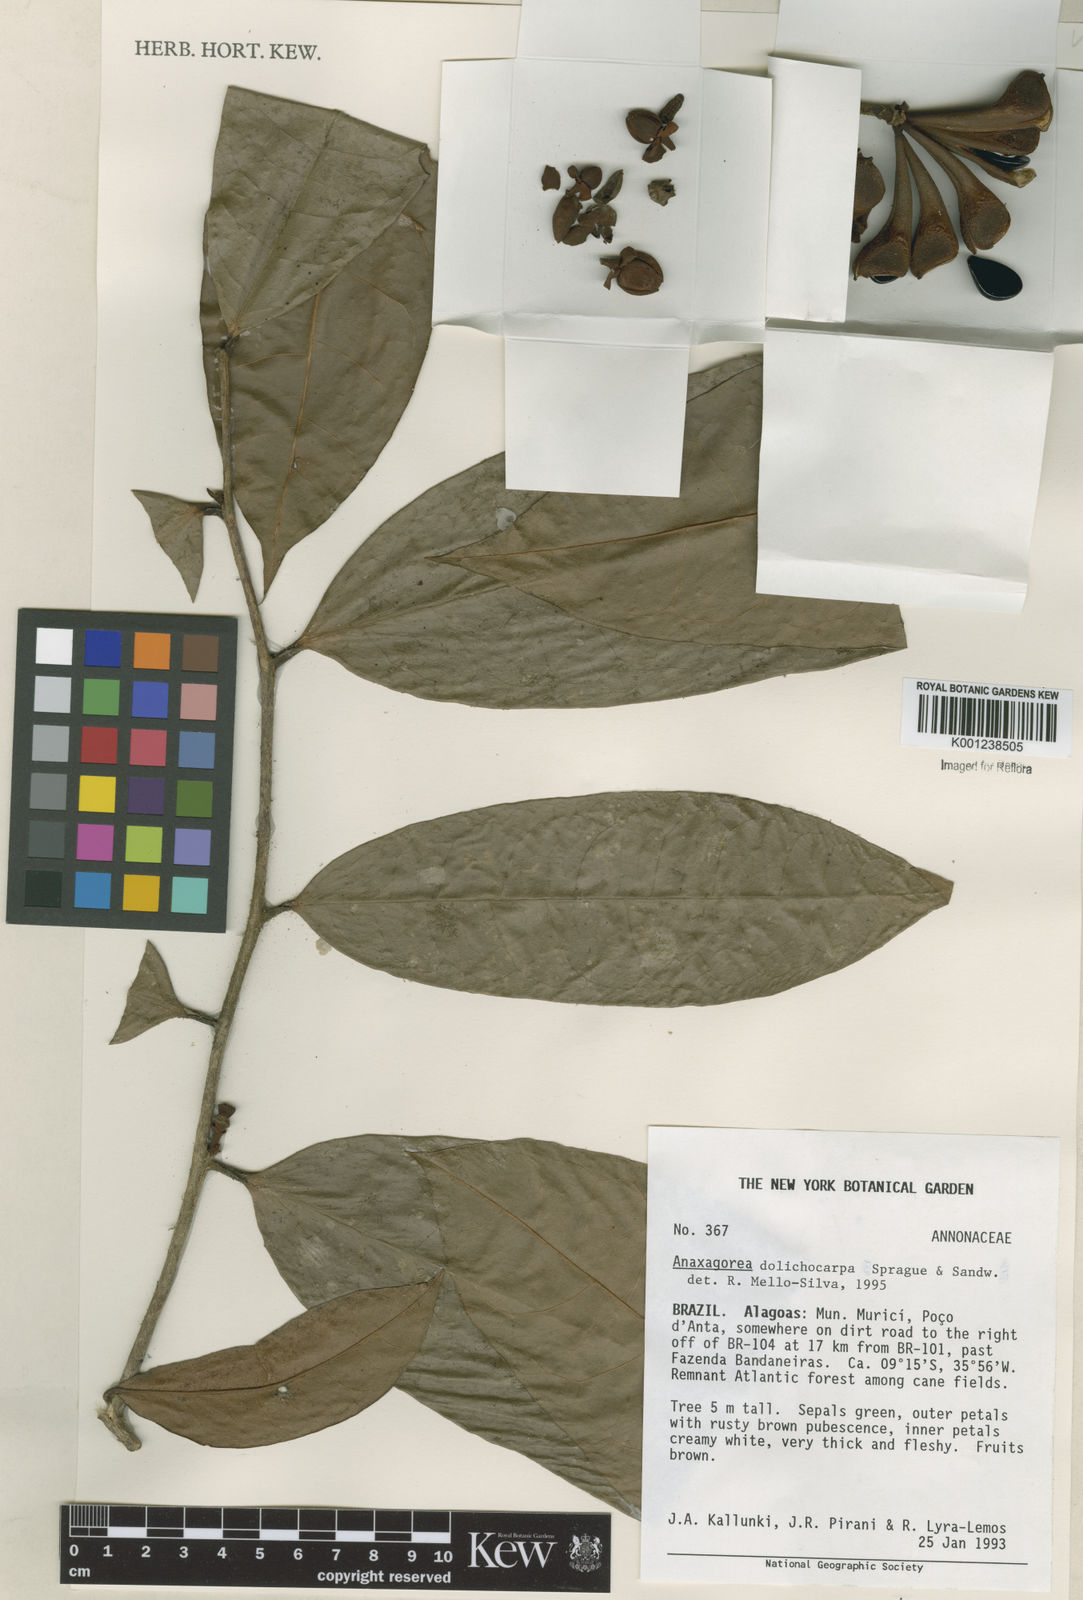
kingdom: Plantae
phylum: Tracheophyta
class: Magnoliopsida
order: Magnoliales
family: Annonaceae
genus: Anaxagorea
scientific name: Anaxagorea dolichocarpa
